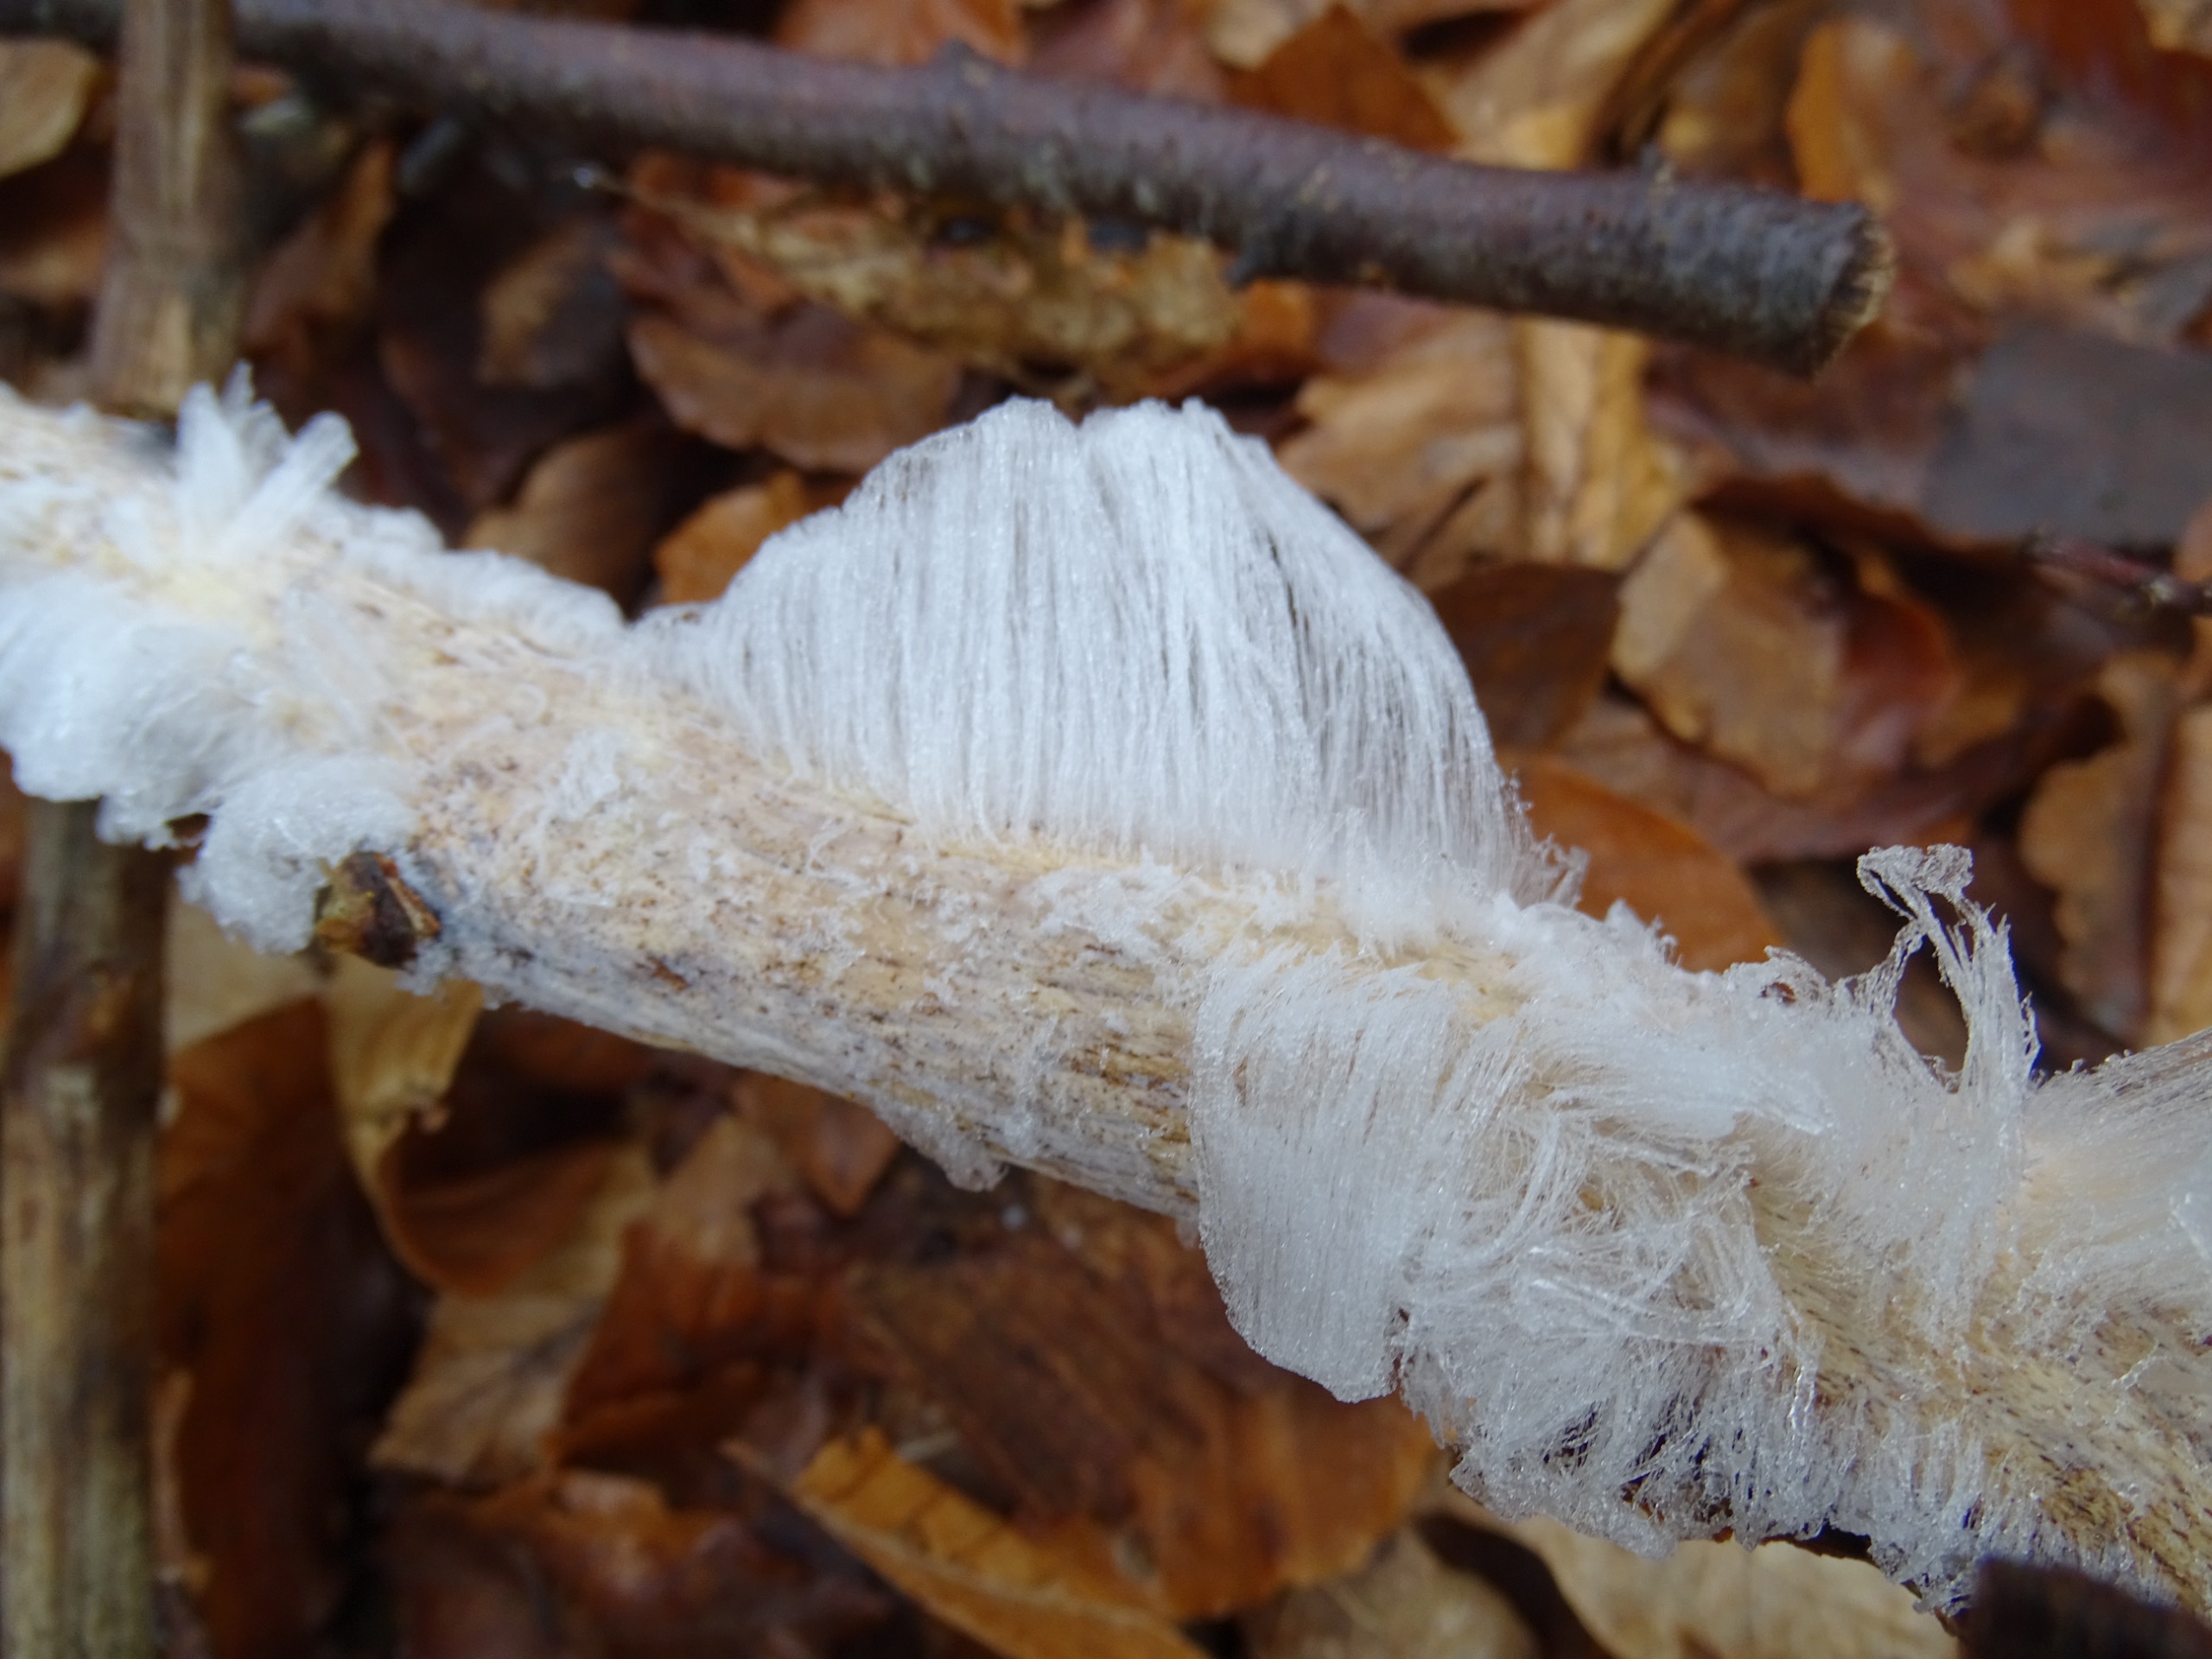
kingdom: Fungi
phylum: Basidiomycota
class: Tremellomycetes
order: Tremellales
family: Exidiaceae
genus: Exidiopsis
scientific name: Exidiopsis effusa
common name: Smuk bævrehinde
